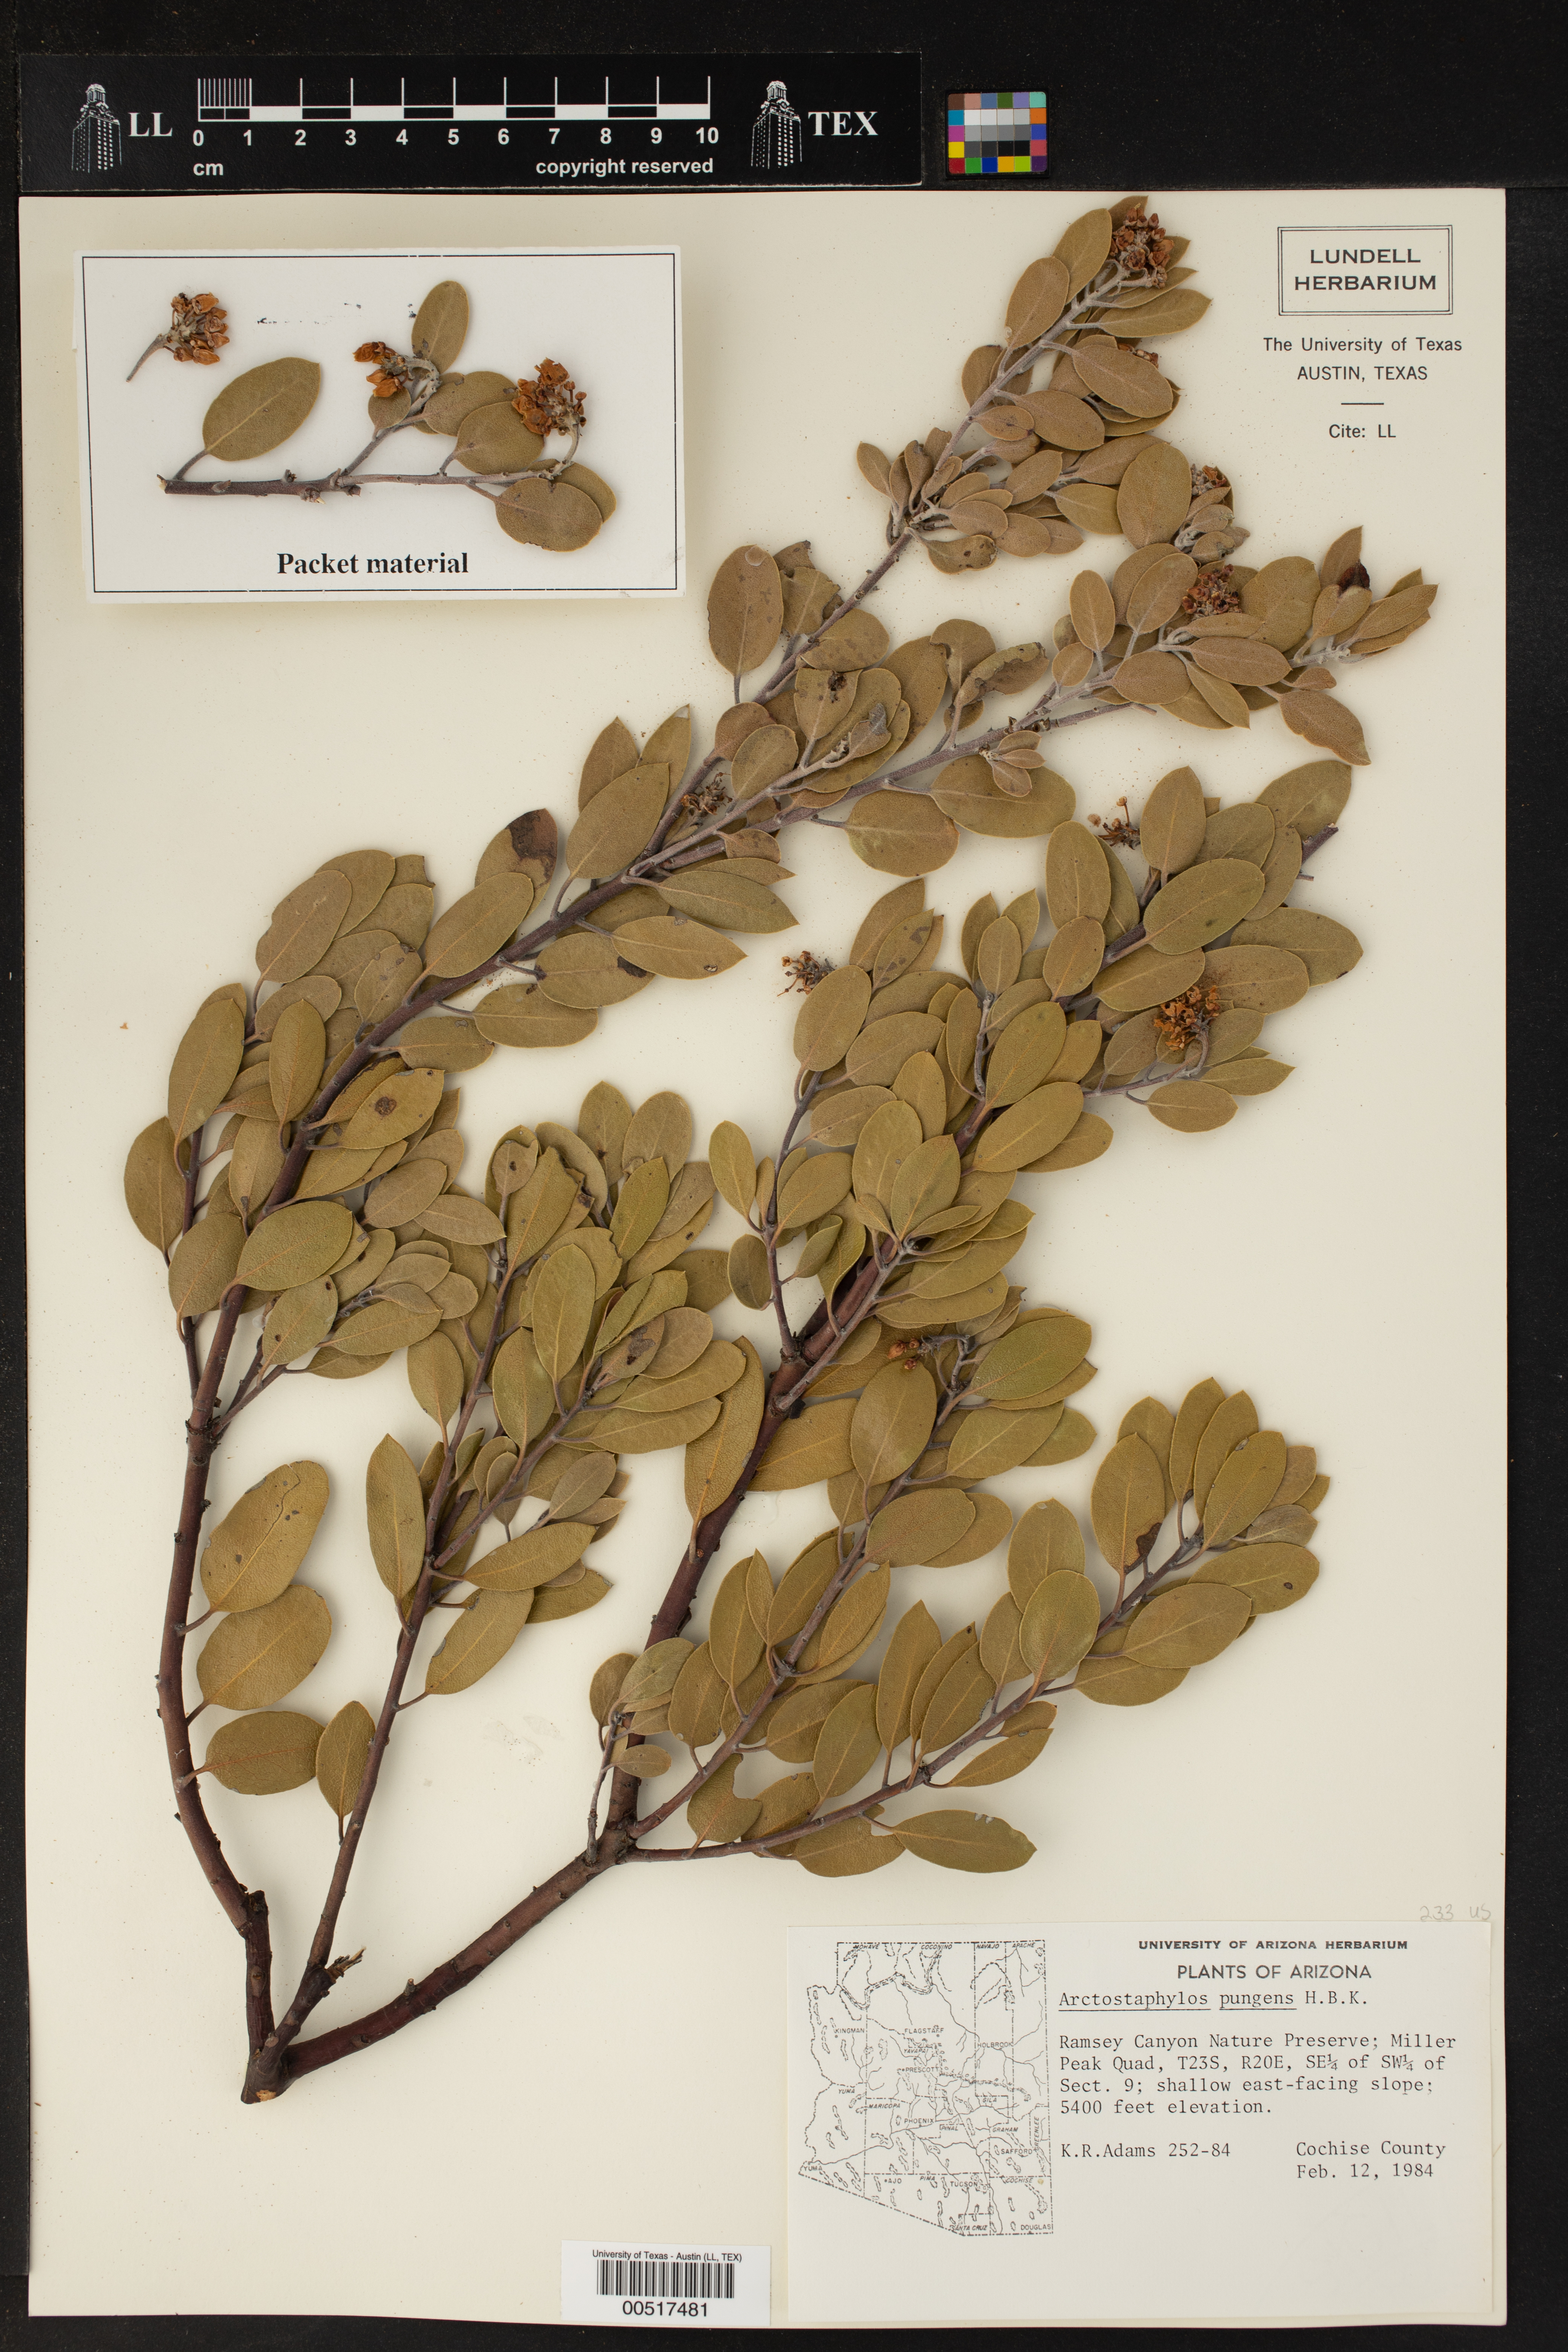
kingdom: Plantae
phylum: Tracheophyta
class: Magnoliopsida
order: Ericales
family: Ericaceae
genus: Arctostaphylos
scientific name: Arctostaphylos pungens
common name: Mexican manzanita
